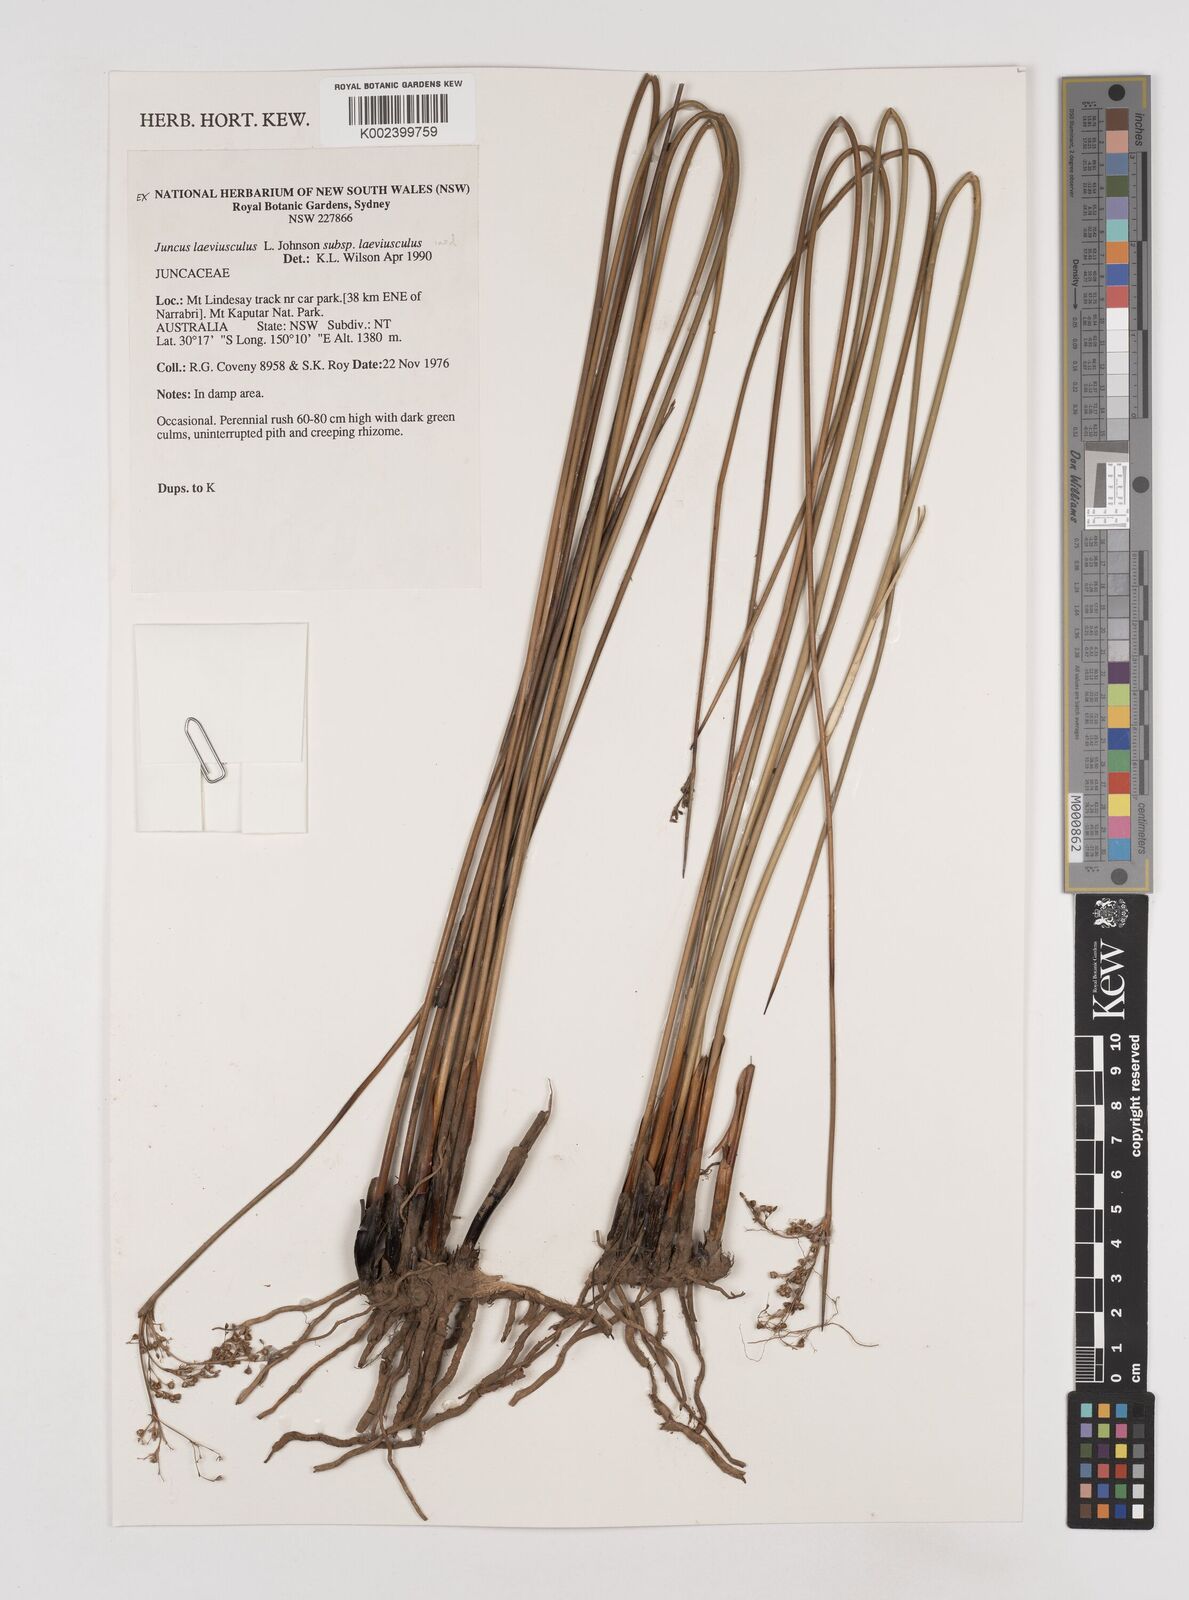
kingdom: Plantae
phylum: Tracheophyta
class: Liliopsida
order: Poales
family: Juncaceae
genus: Juncus
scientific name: Juncus laeviusculus
